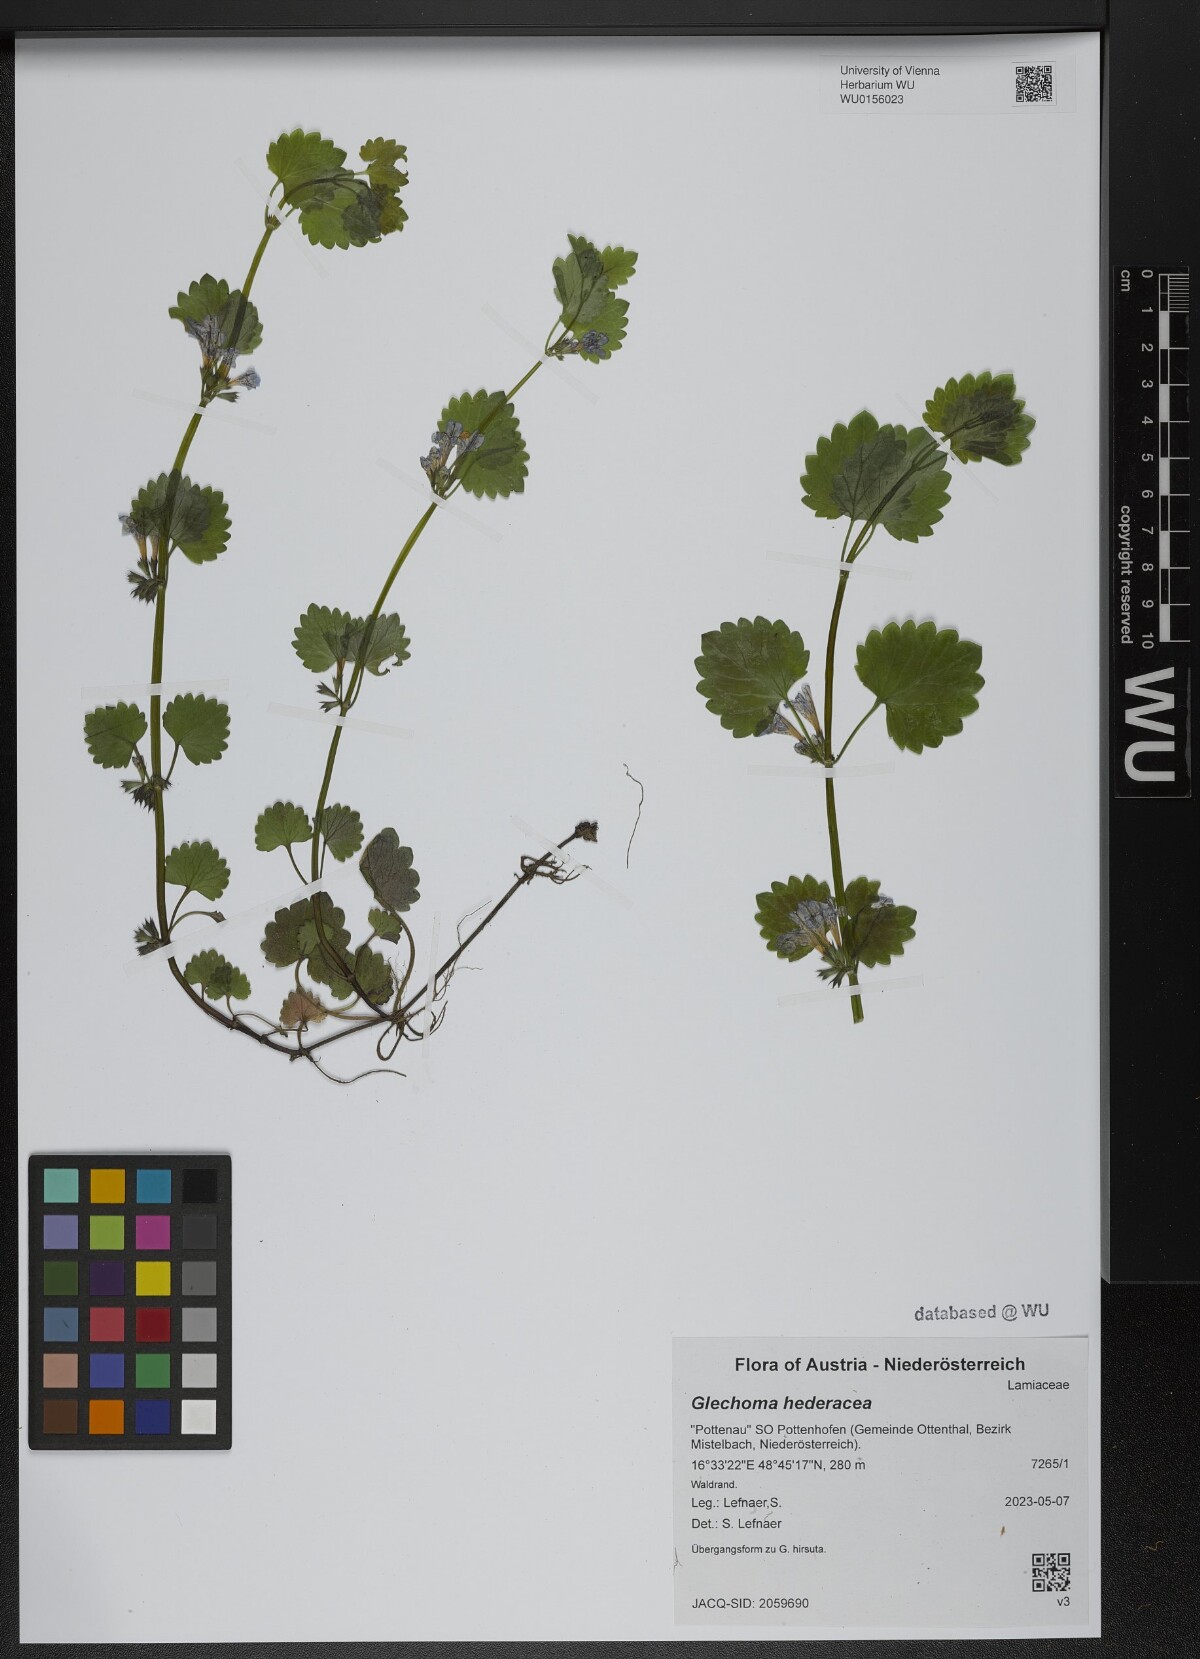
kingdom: Plantae
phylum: Tracheophyta
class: Magnoliopsida
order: Lamiales
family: Lamiaceae
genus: Glechoma
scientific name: Glechoma hederacea
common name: Ground ivy
